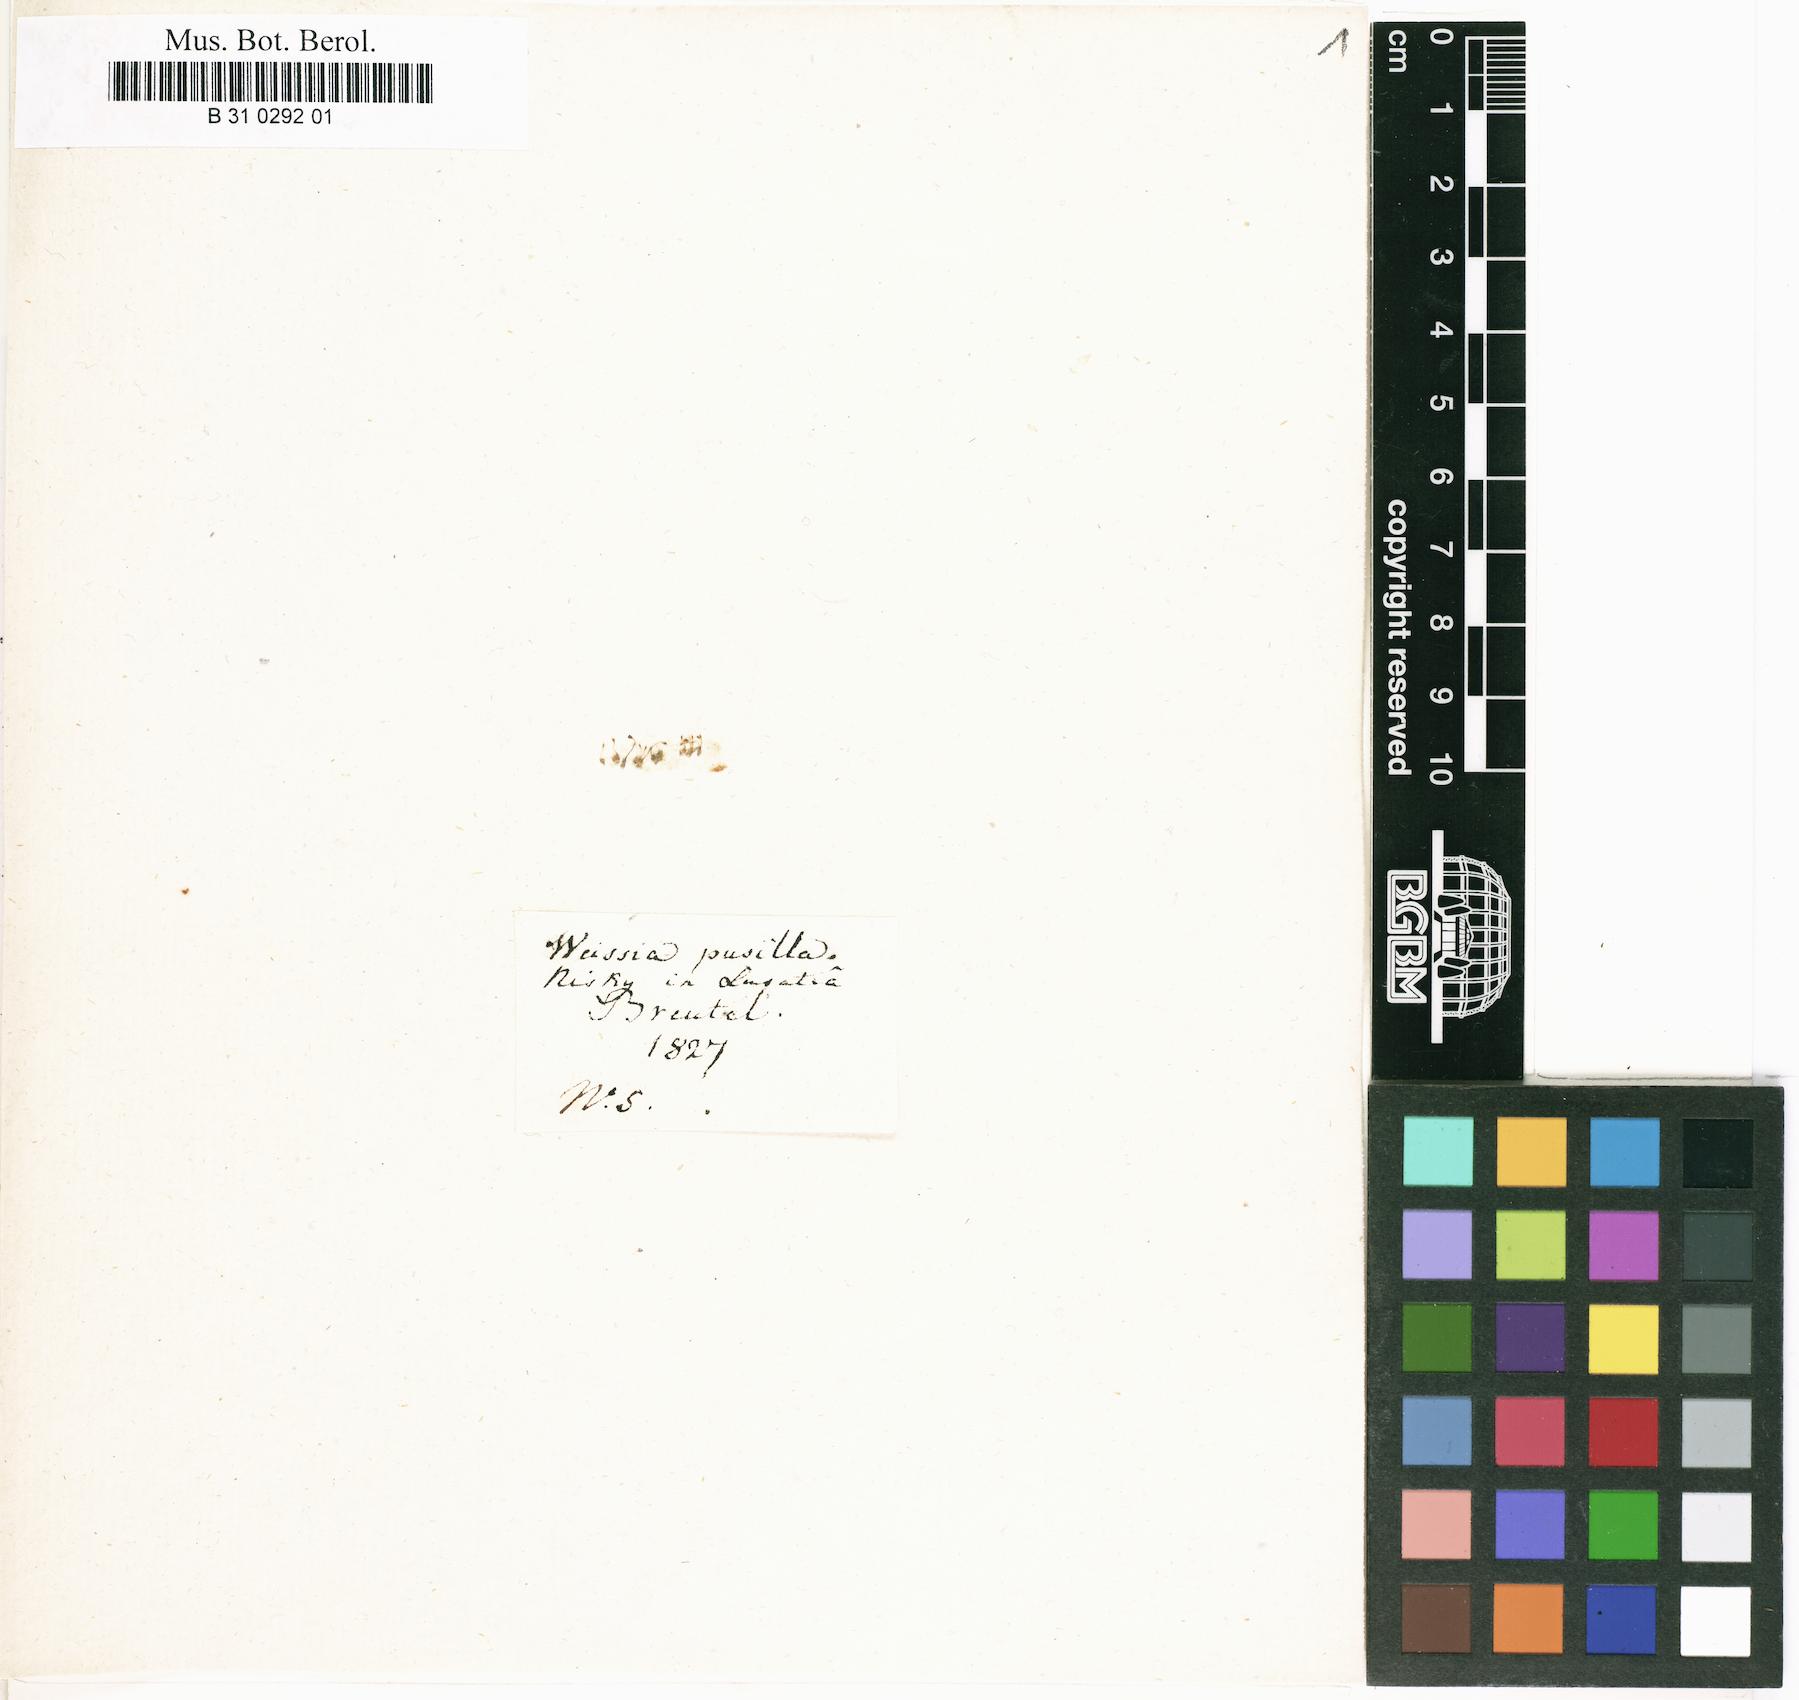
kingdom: Plantae
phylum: Bryophyta
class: Bryopsida
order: Grimmiales
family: Seligeriaceae
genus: Seligeria
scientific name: Seligeria pusilla
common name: Dwarf rock-bristle
